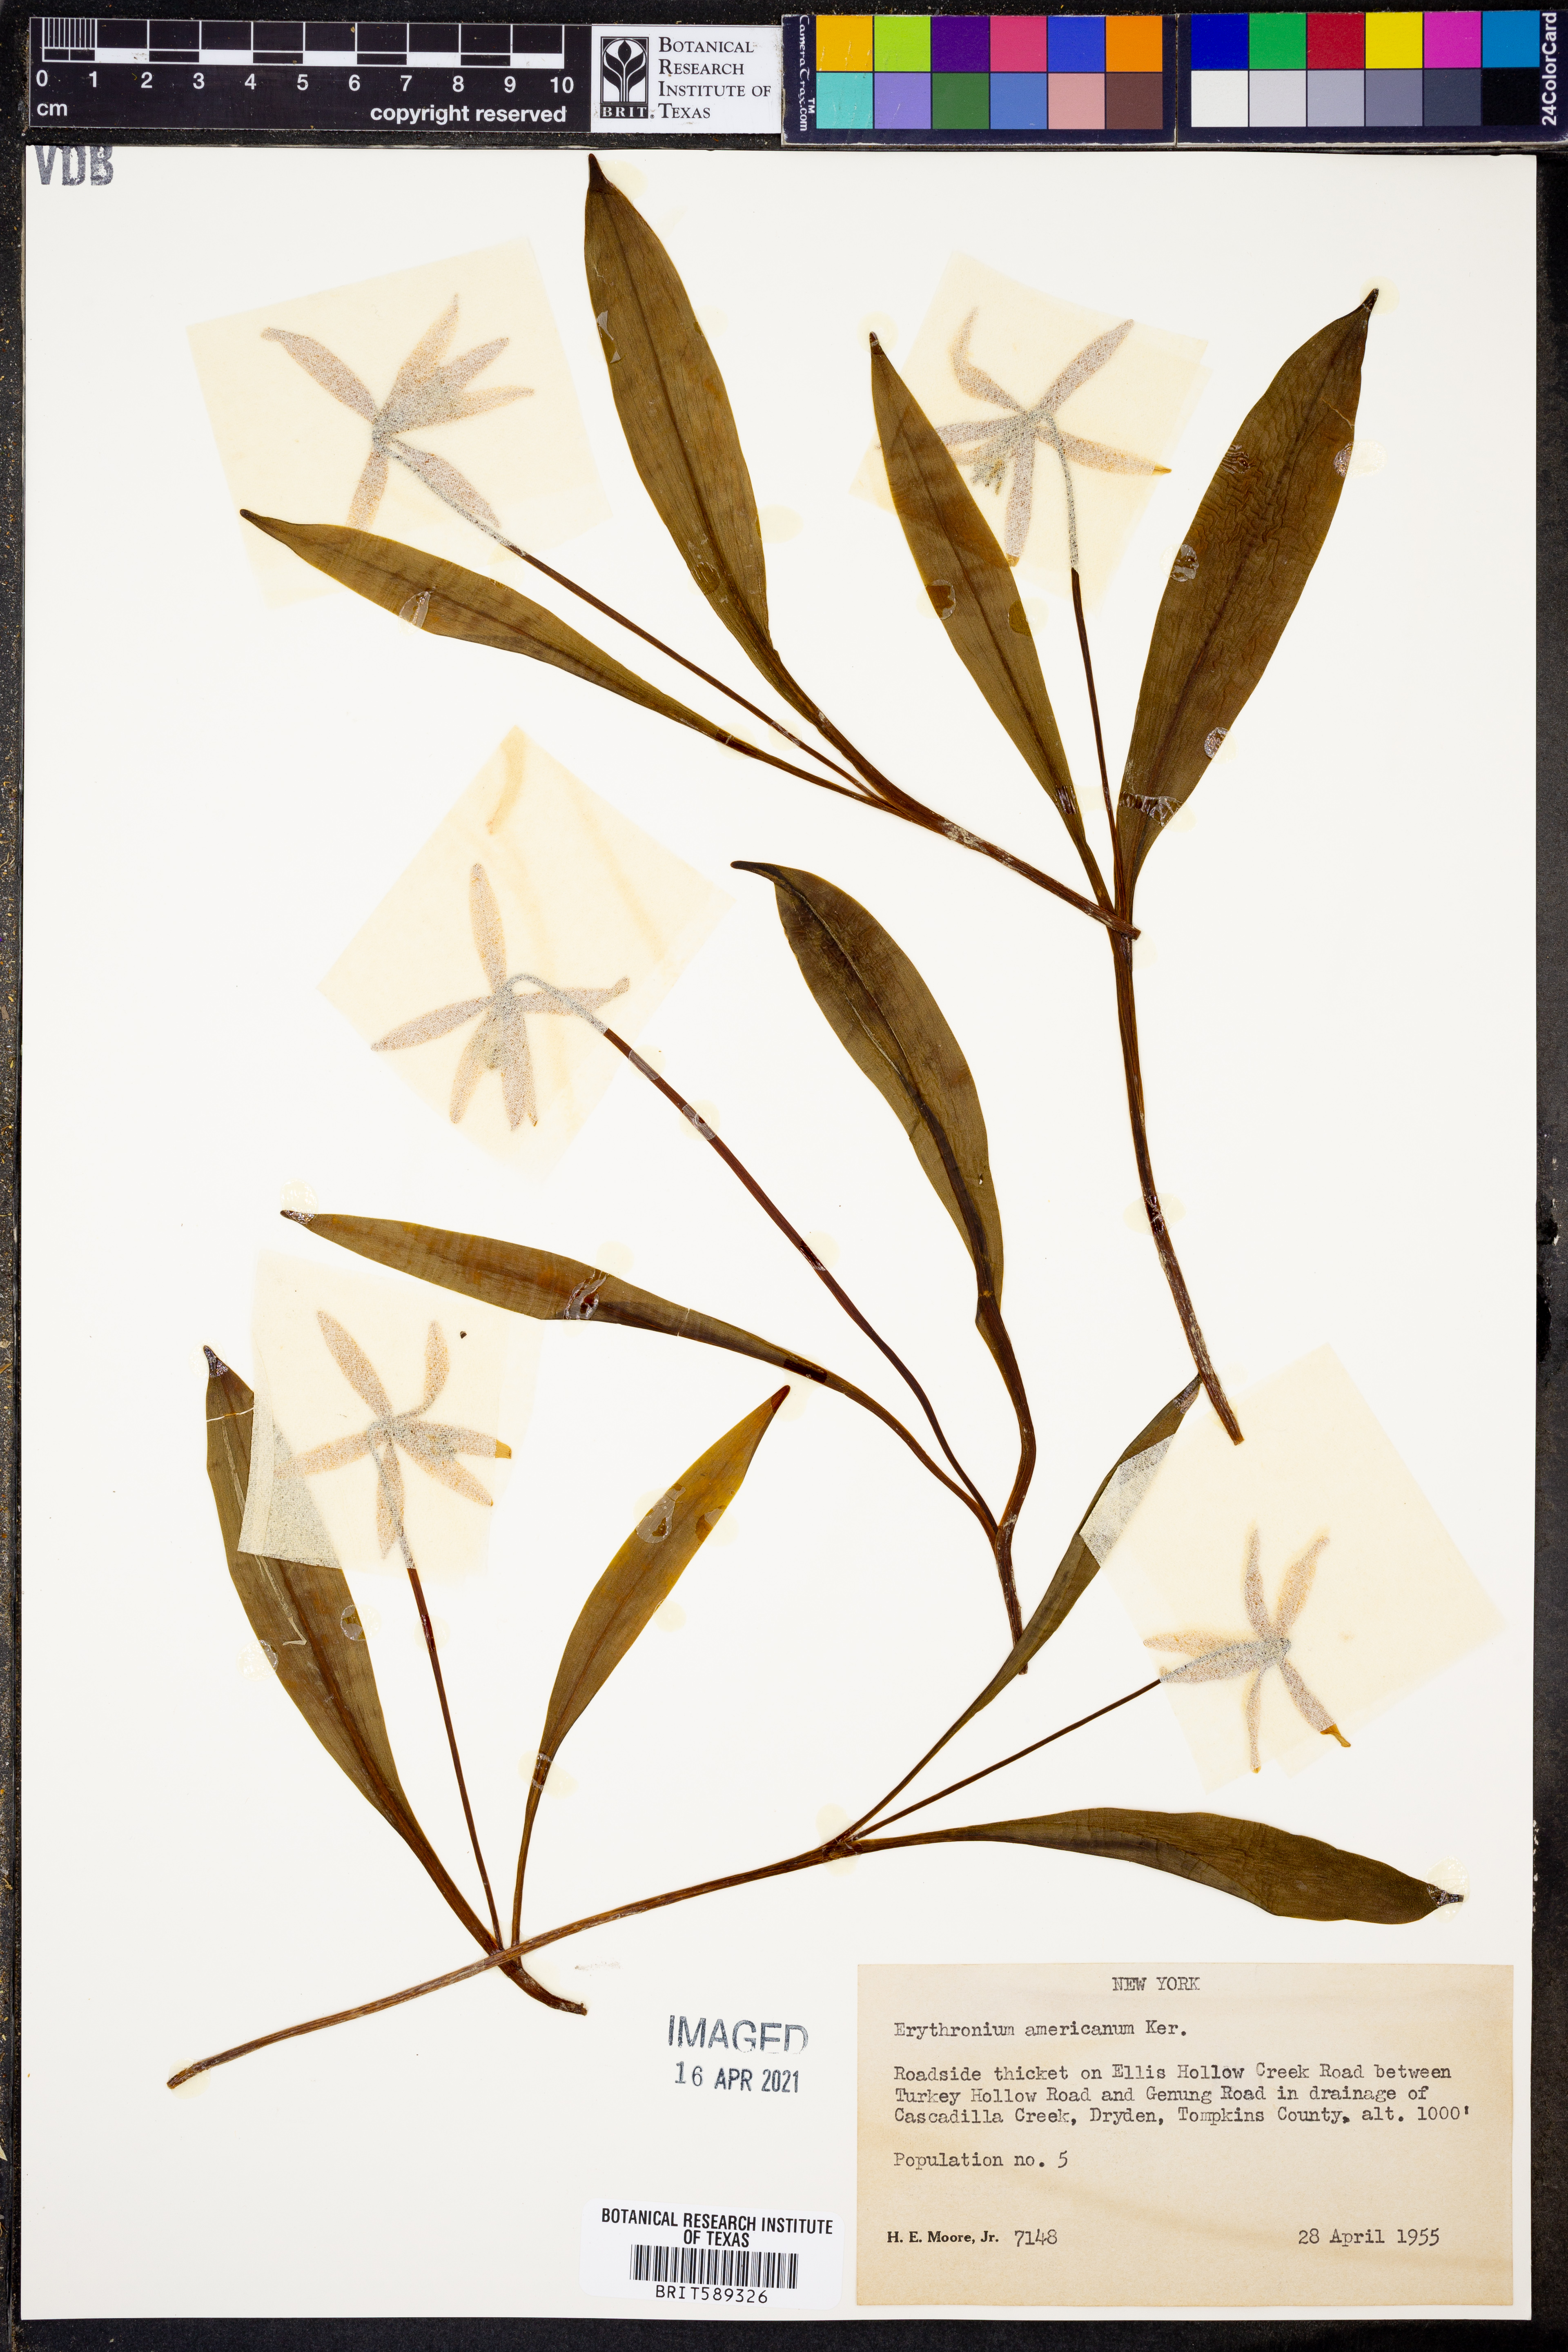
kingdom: Plantae
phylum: Tracheophyta
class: Liliopsida
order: Liliales
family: Liliaceae
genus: Erythronium
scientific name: Erythronium americanum
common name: Yellow adder's-tongue
